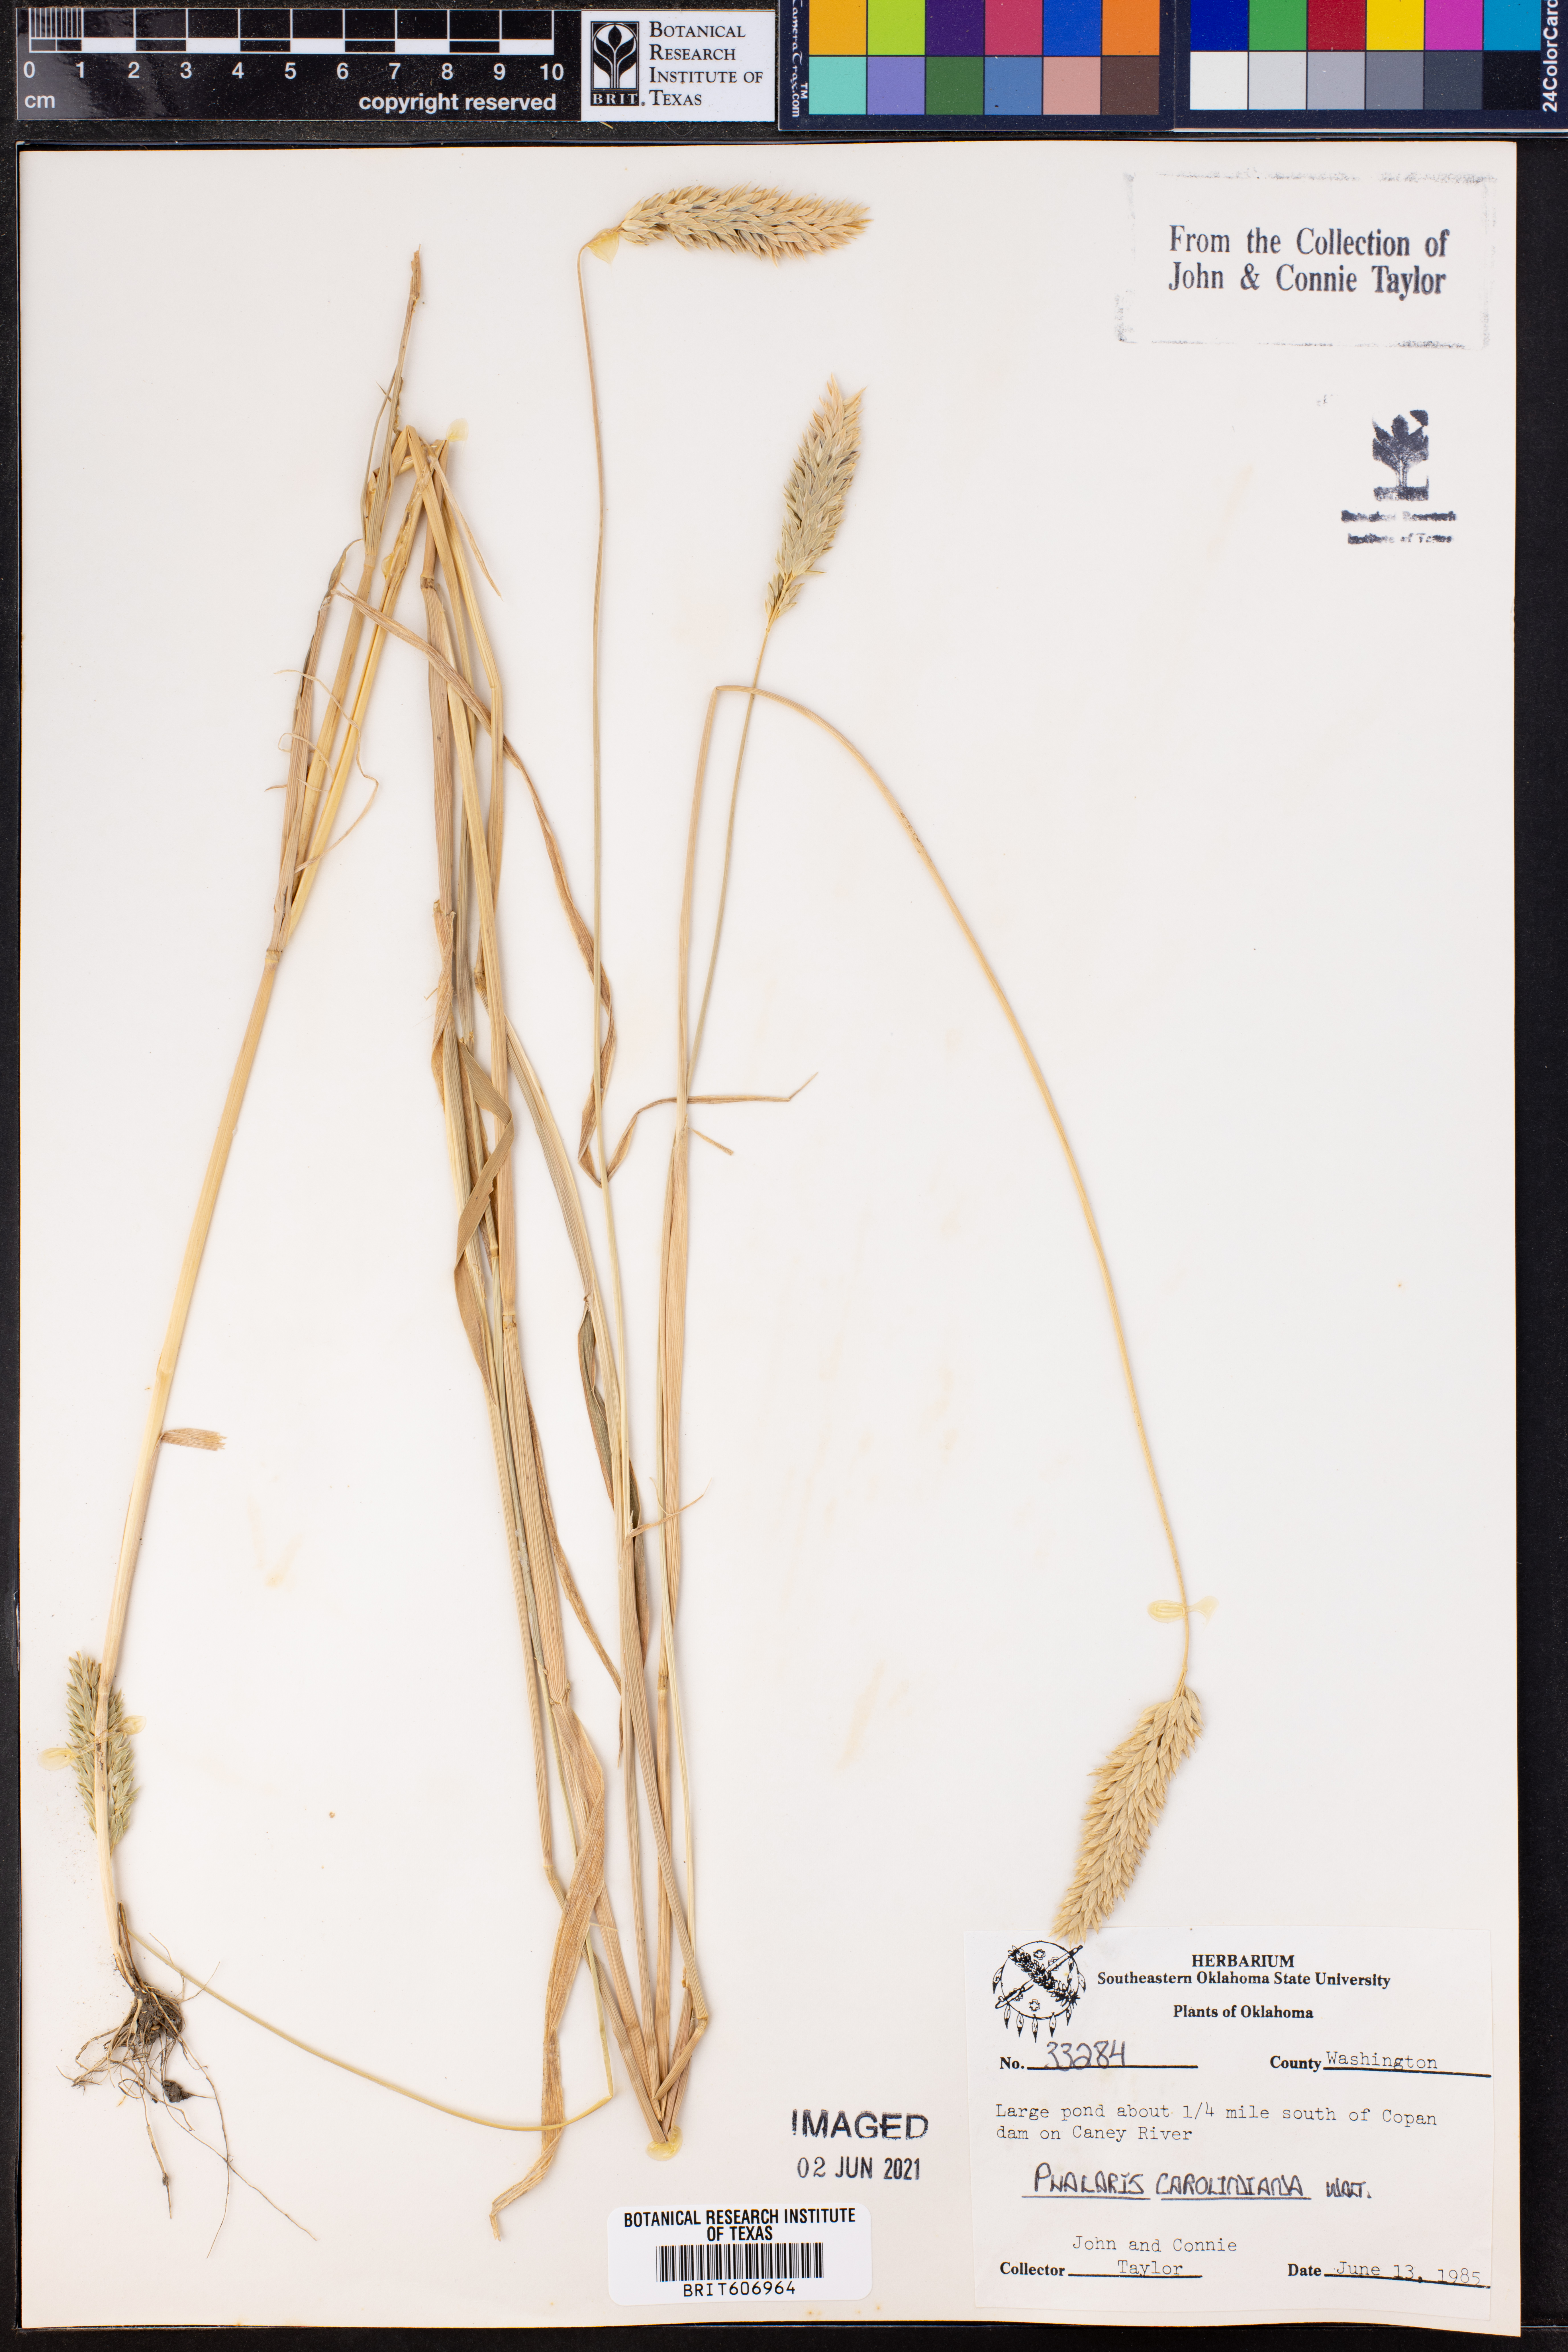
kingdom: Plantae
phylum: Tracheophyta
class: Liliopsida
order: Poales
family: Poaceae
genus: Phalaris
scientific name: Phalaris caroliniana
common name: May grass
